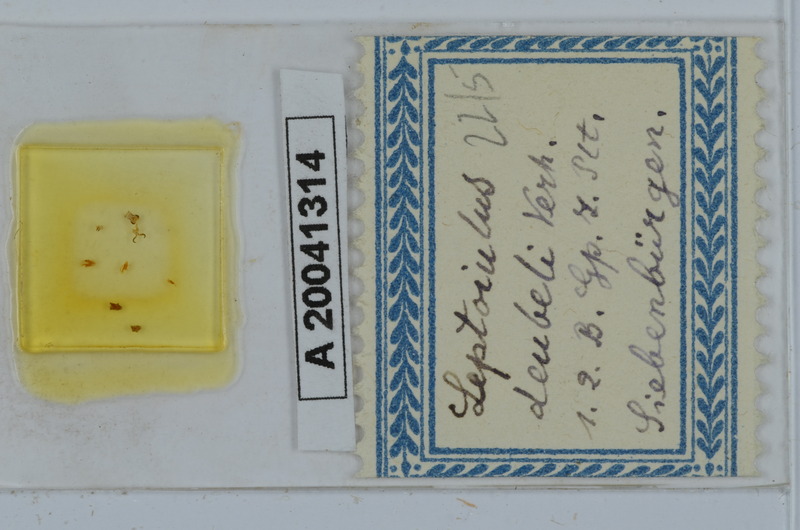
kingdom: Animalia
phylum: Arthropoda
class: Diplopoda
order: Julida
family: Julidae
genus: Leptoiulus
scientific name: Leptoiulus deubeli
